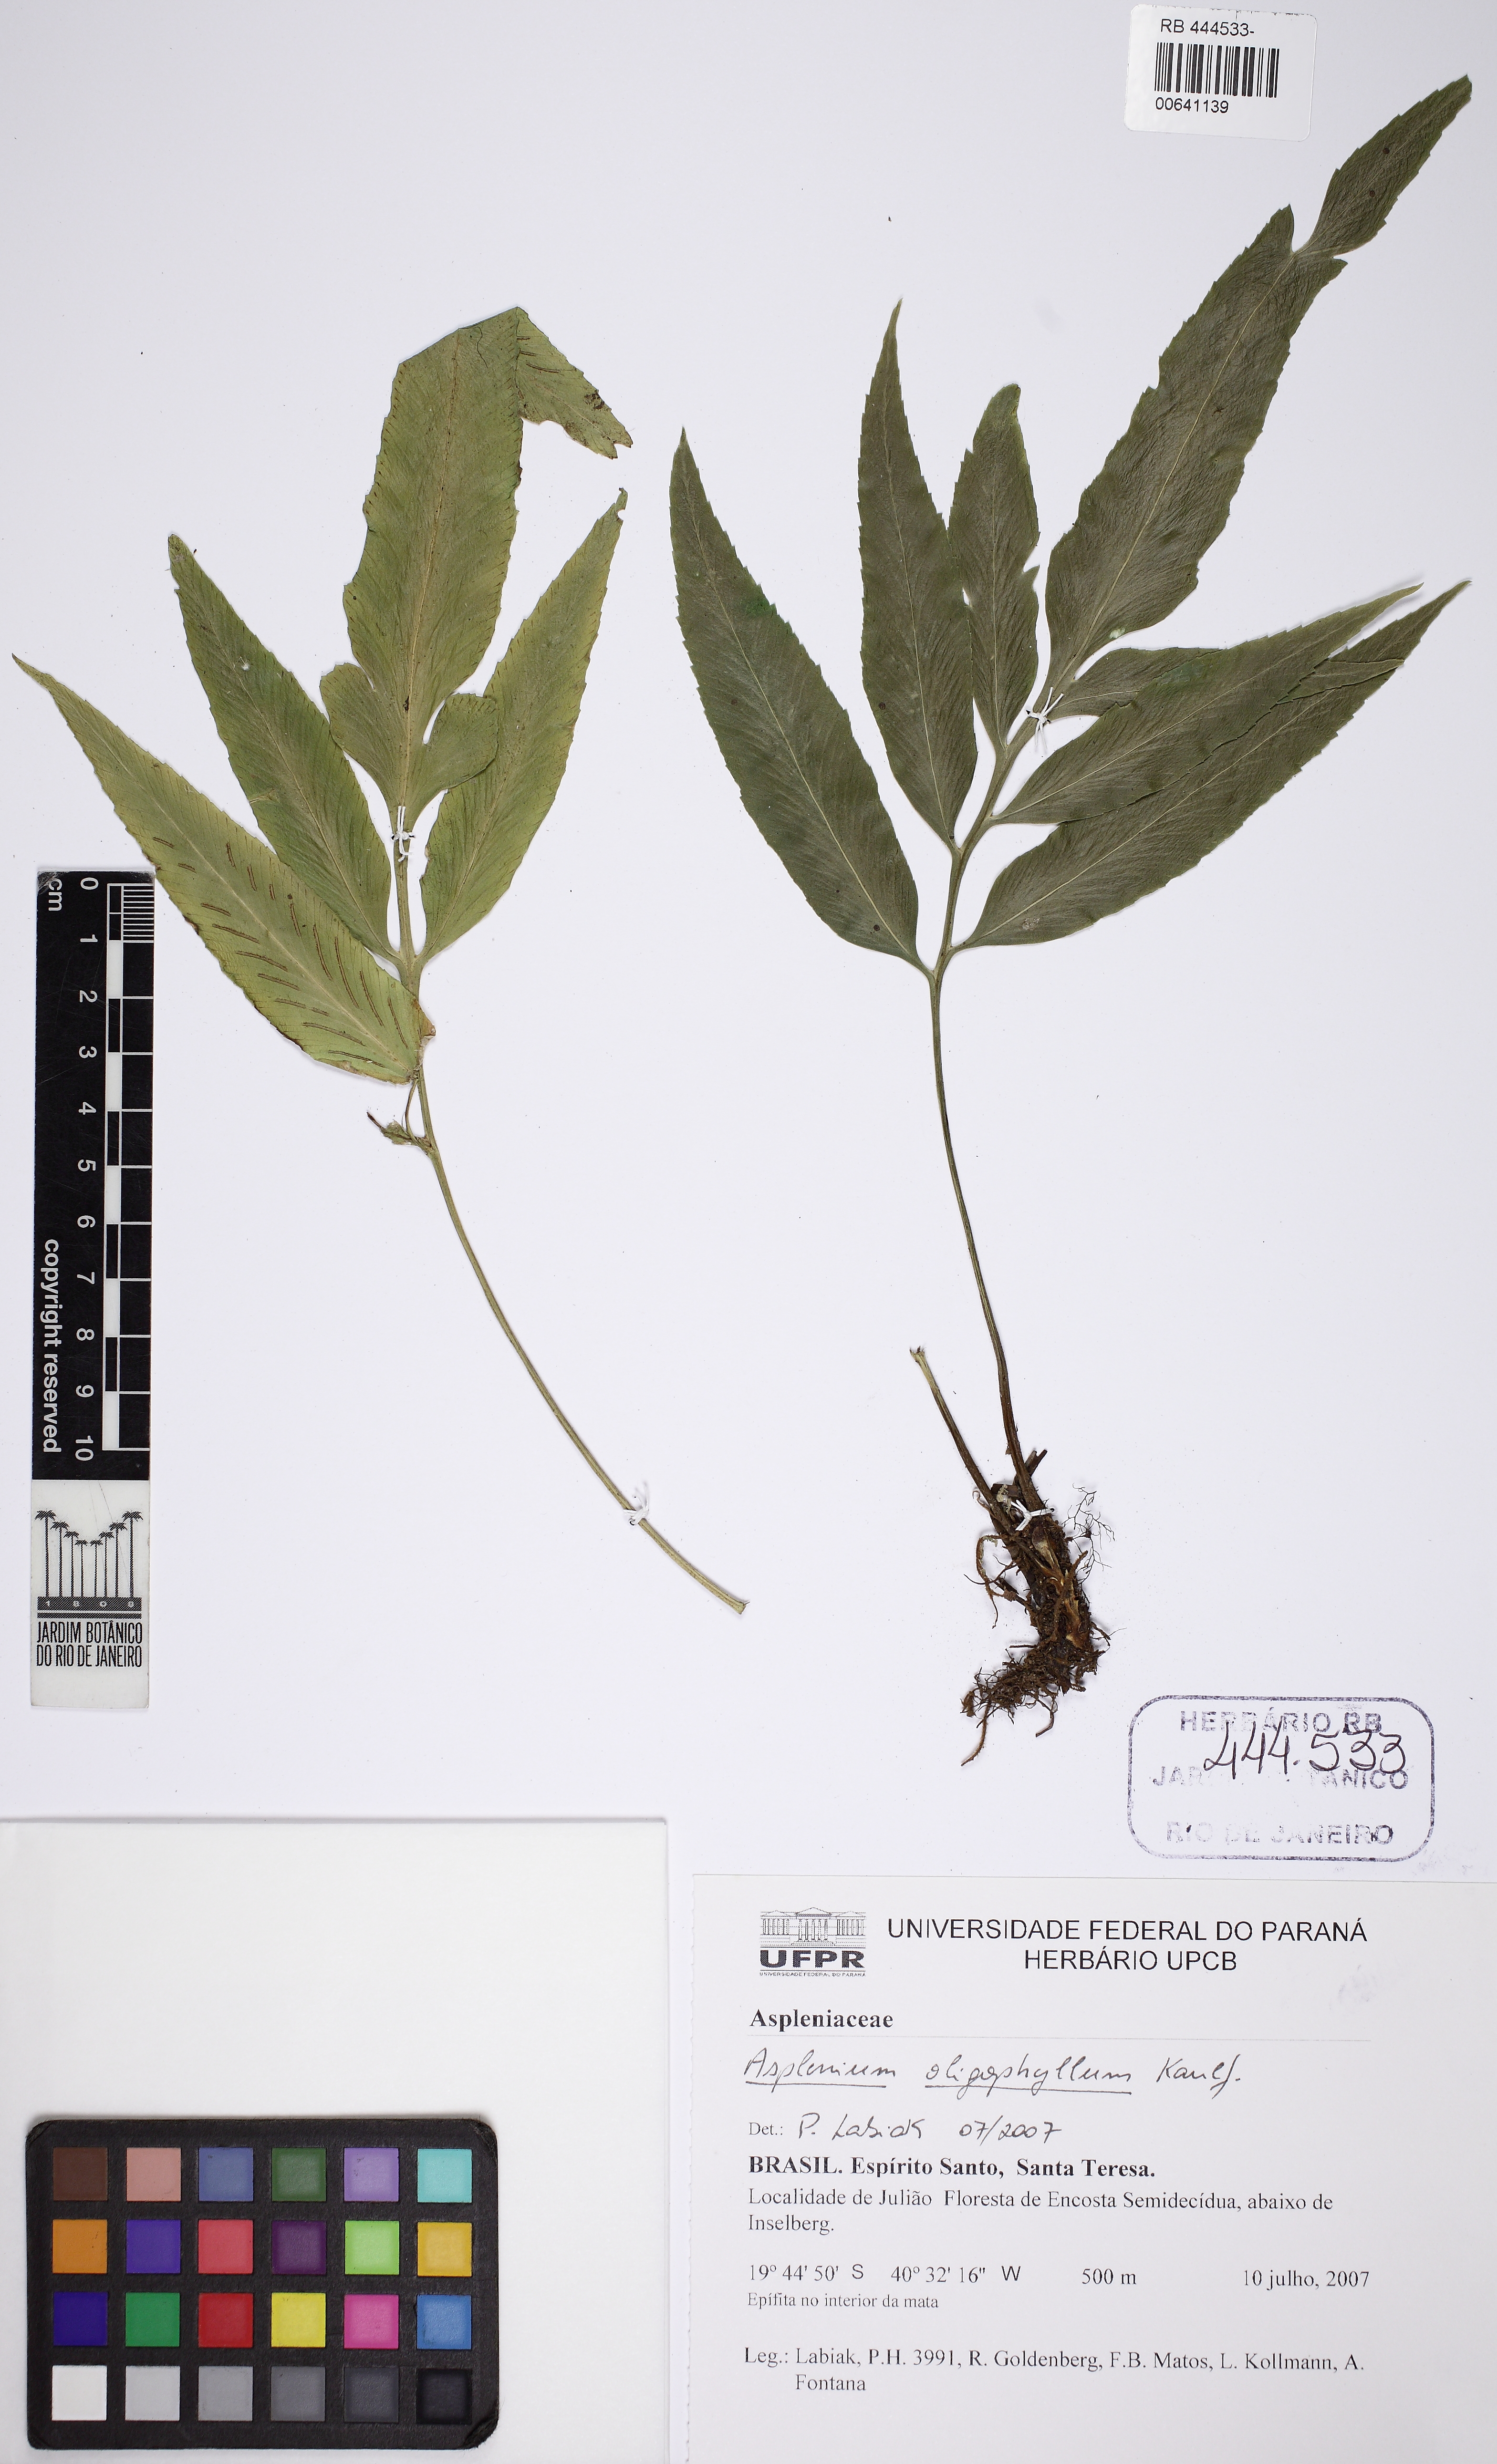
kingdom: Plantae
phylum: Tracheophyta
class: Polypodiopsida
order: Polypodiales
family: Aspleniaceae
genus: Asplenium
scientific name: Asplenium oligophyllum
